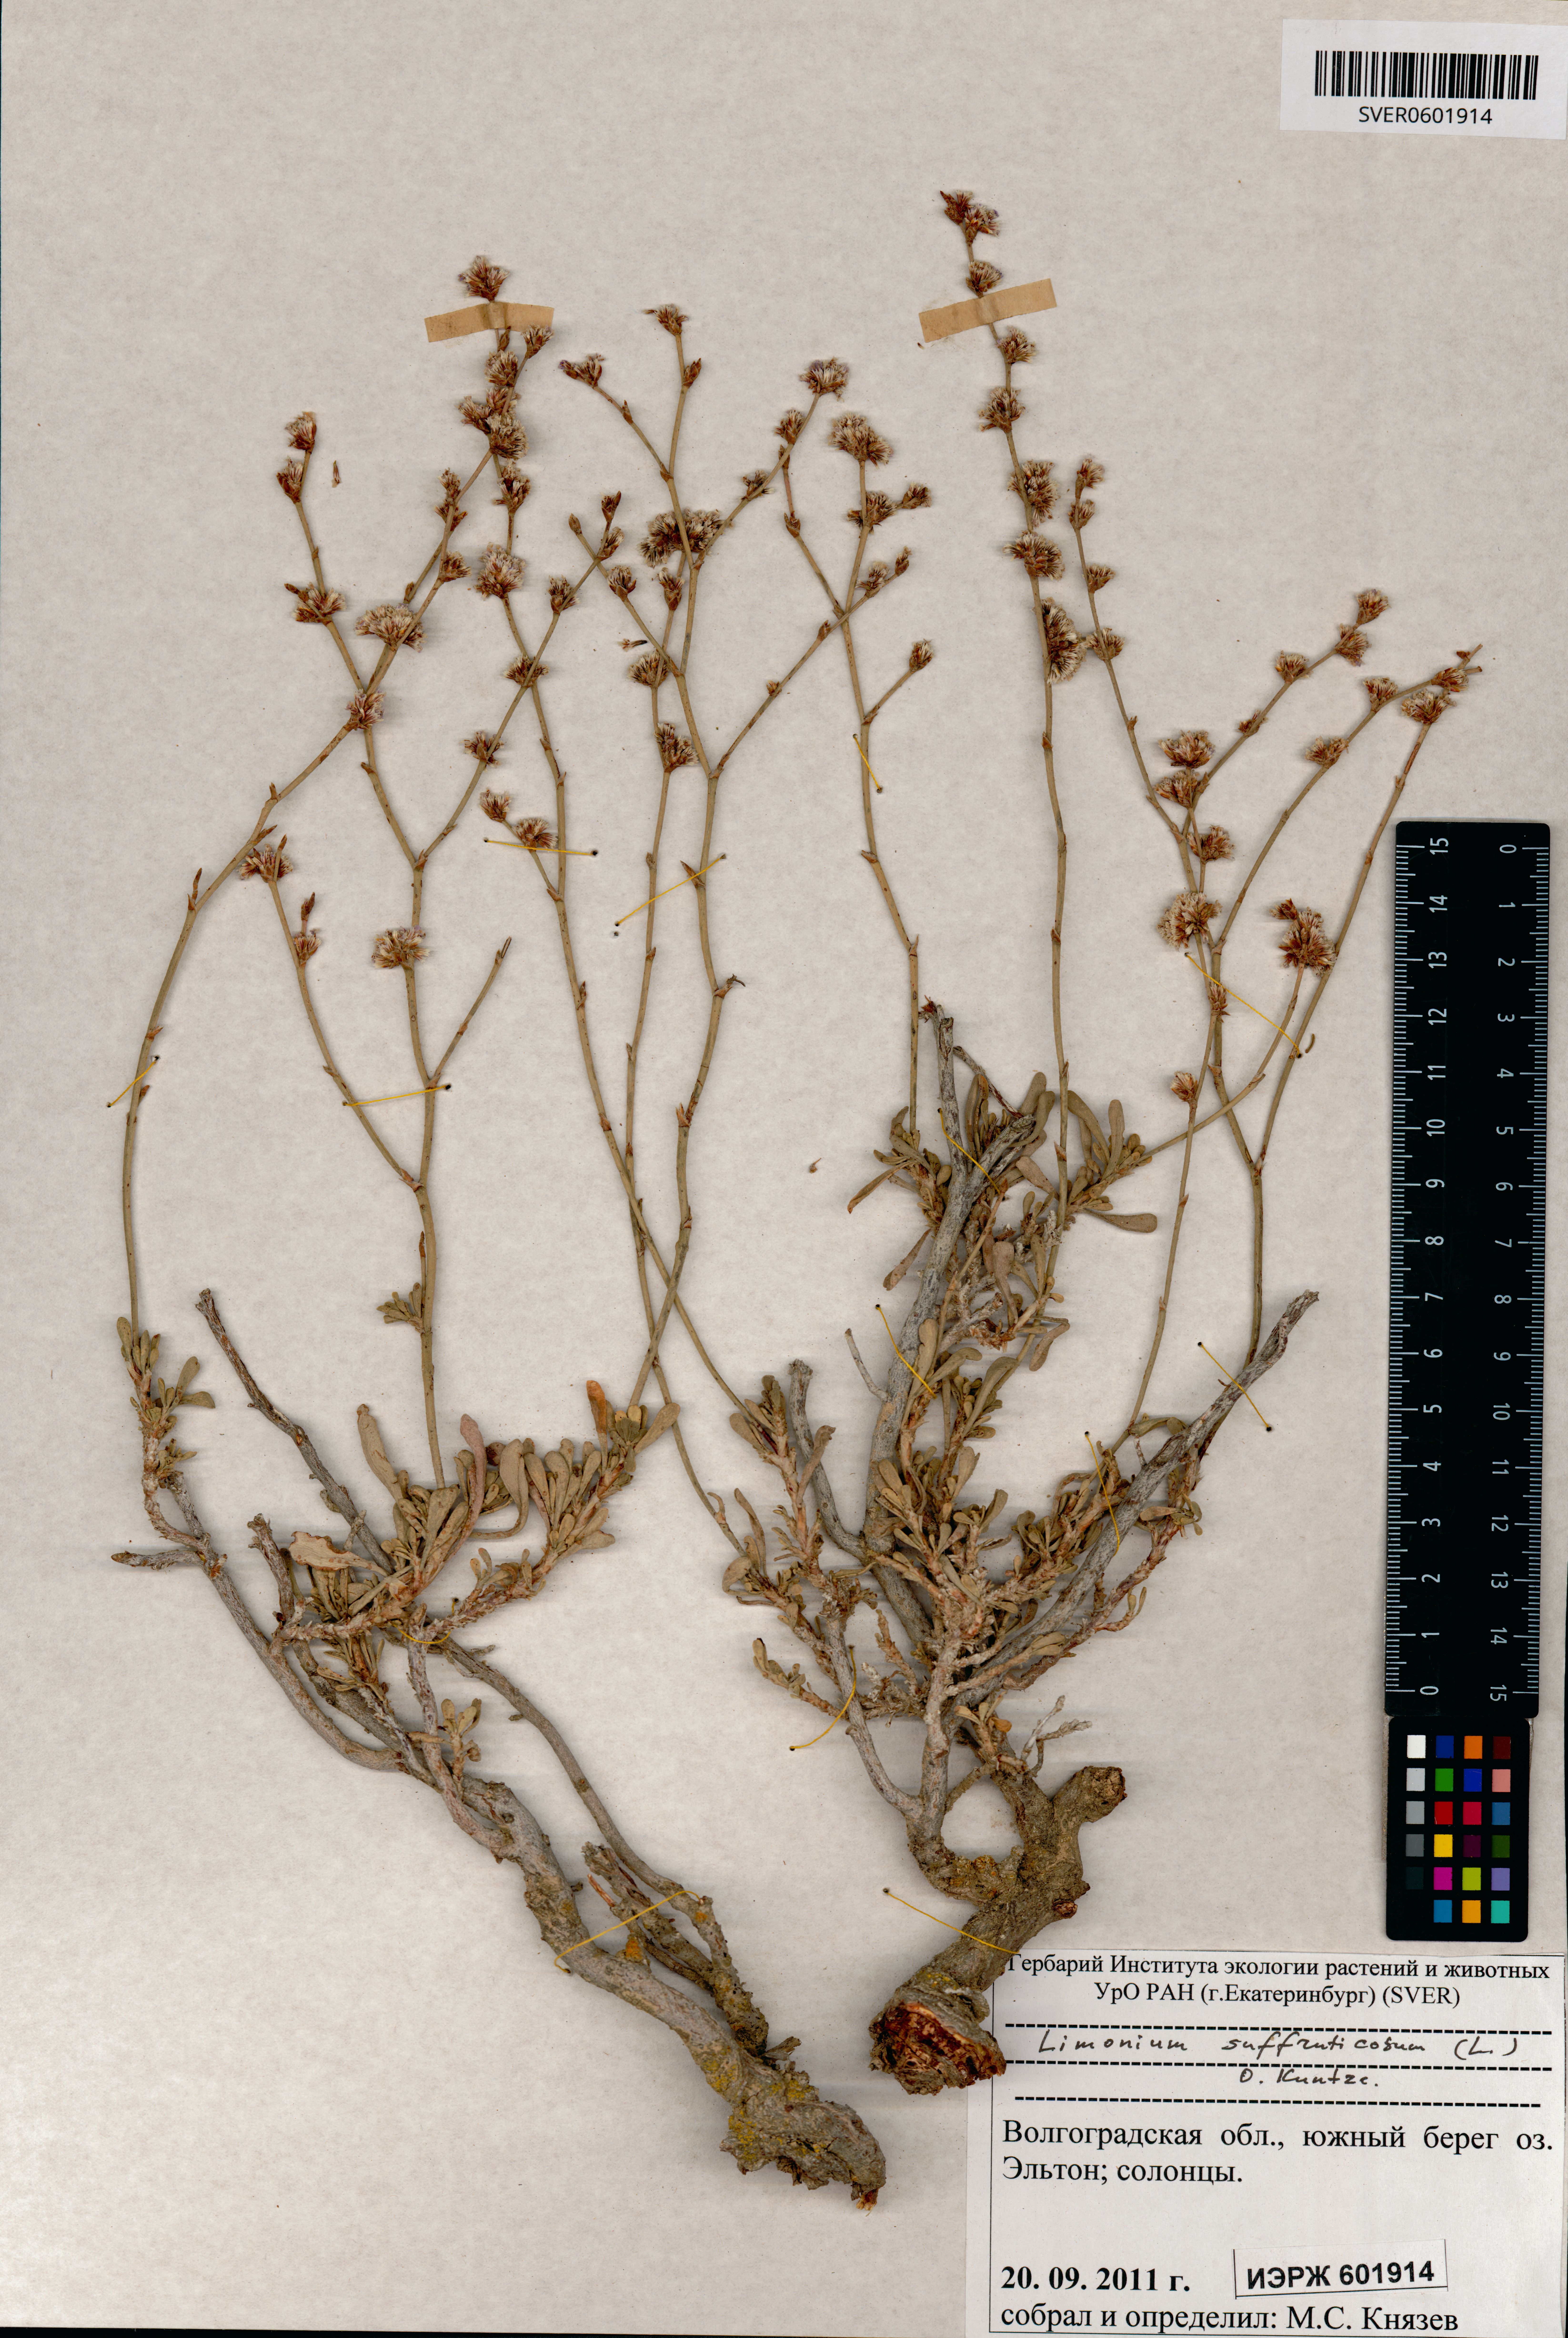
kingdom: Plantae
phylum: Tracheophyta
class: Magnoliopsida
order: Caryophyllales
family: Plumbaginaceae
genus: Limonium
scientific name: Limonium suffruticosum
